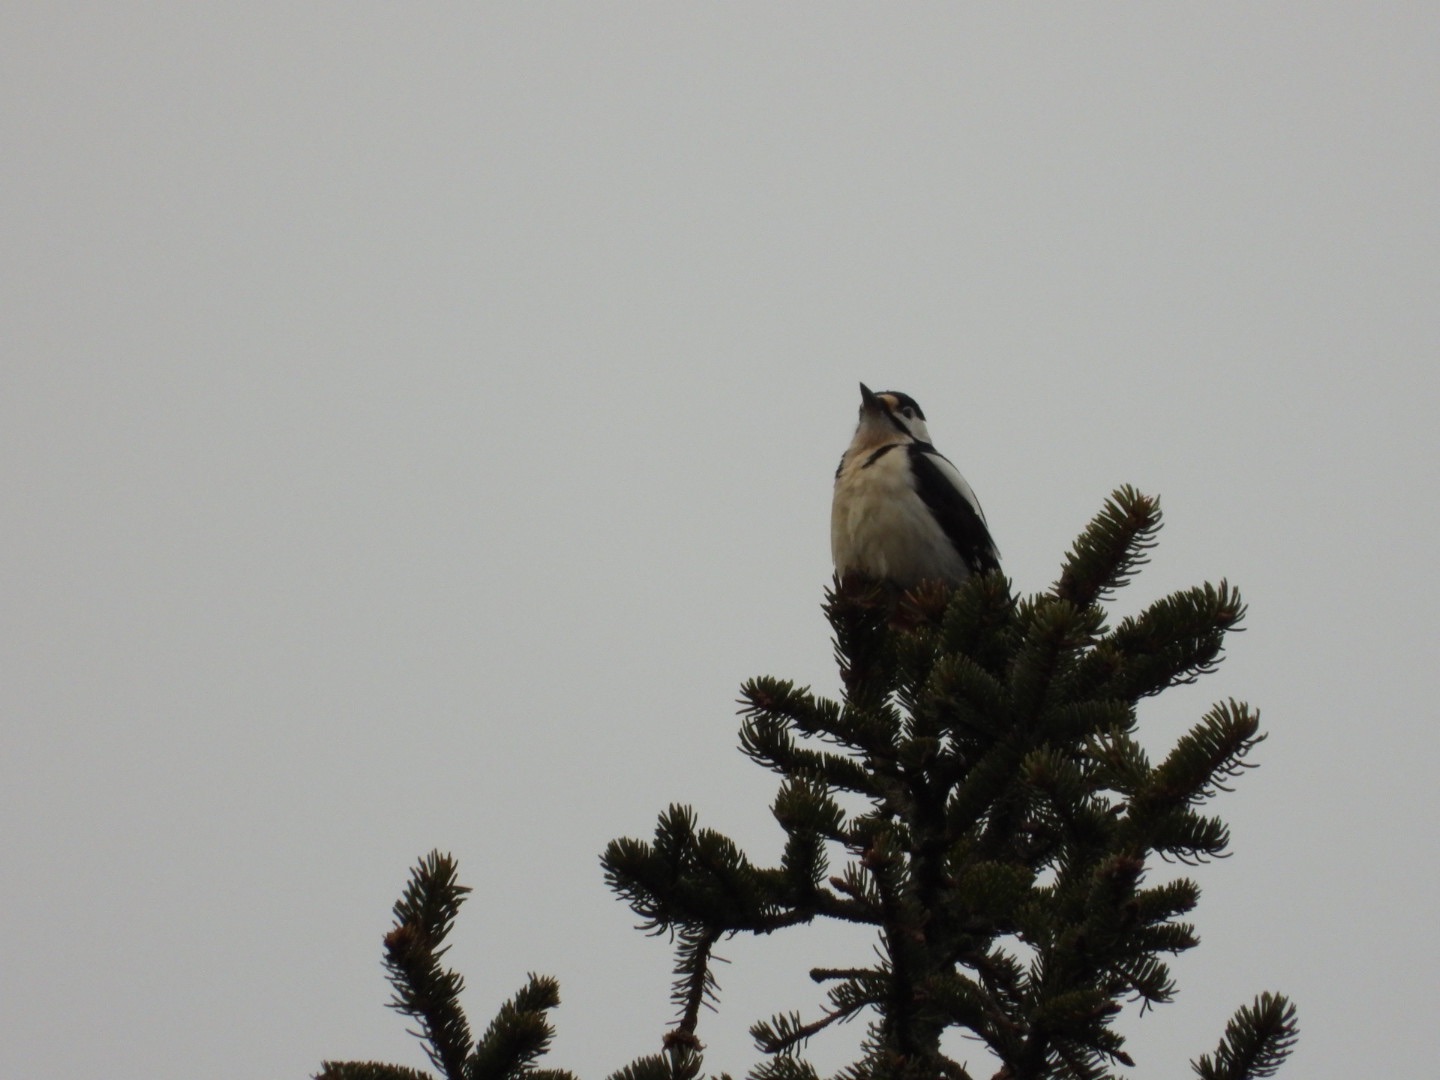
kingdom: Animalia
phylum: Chordata
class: Aves
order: Piciformes
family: Picidae
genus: Dendrocopos
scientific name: Dendrocopos major
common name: Stor flagspætte
